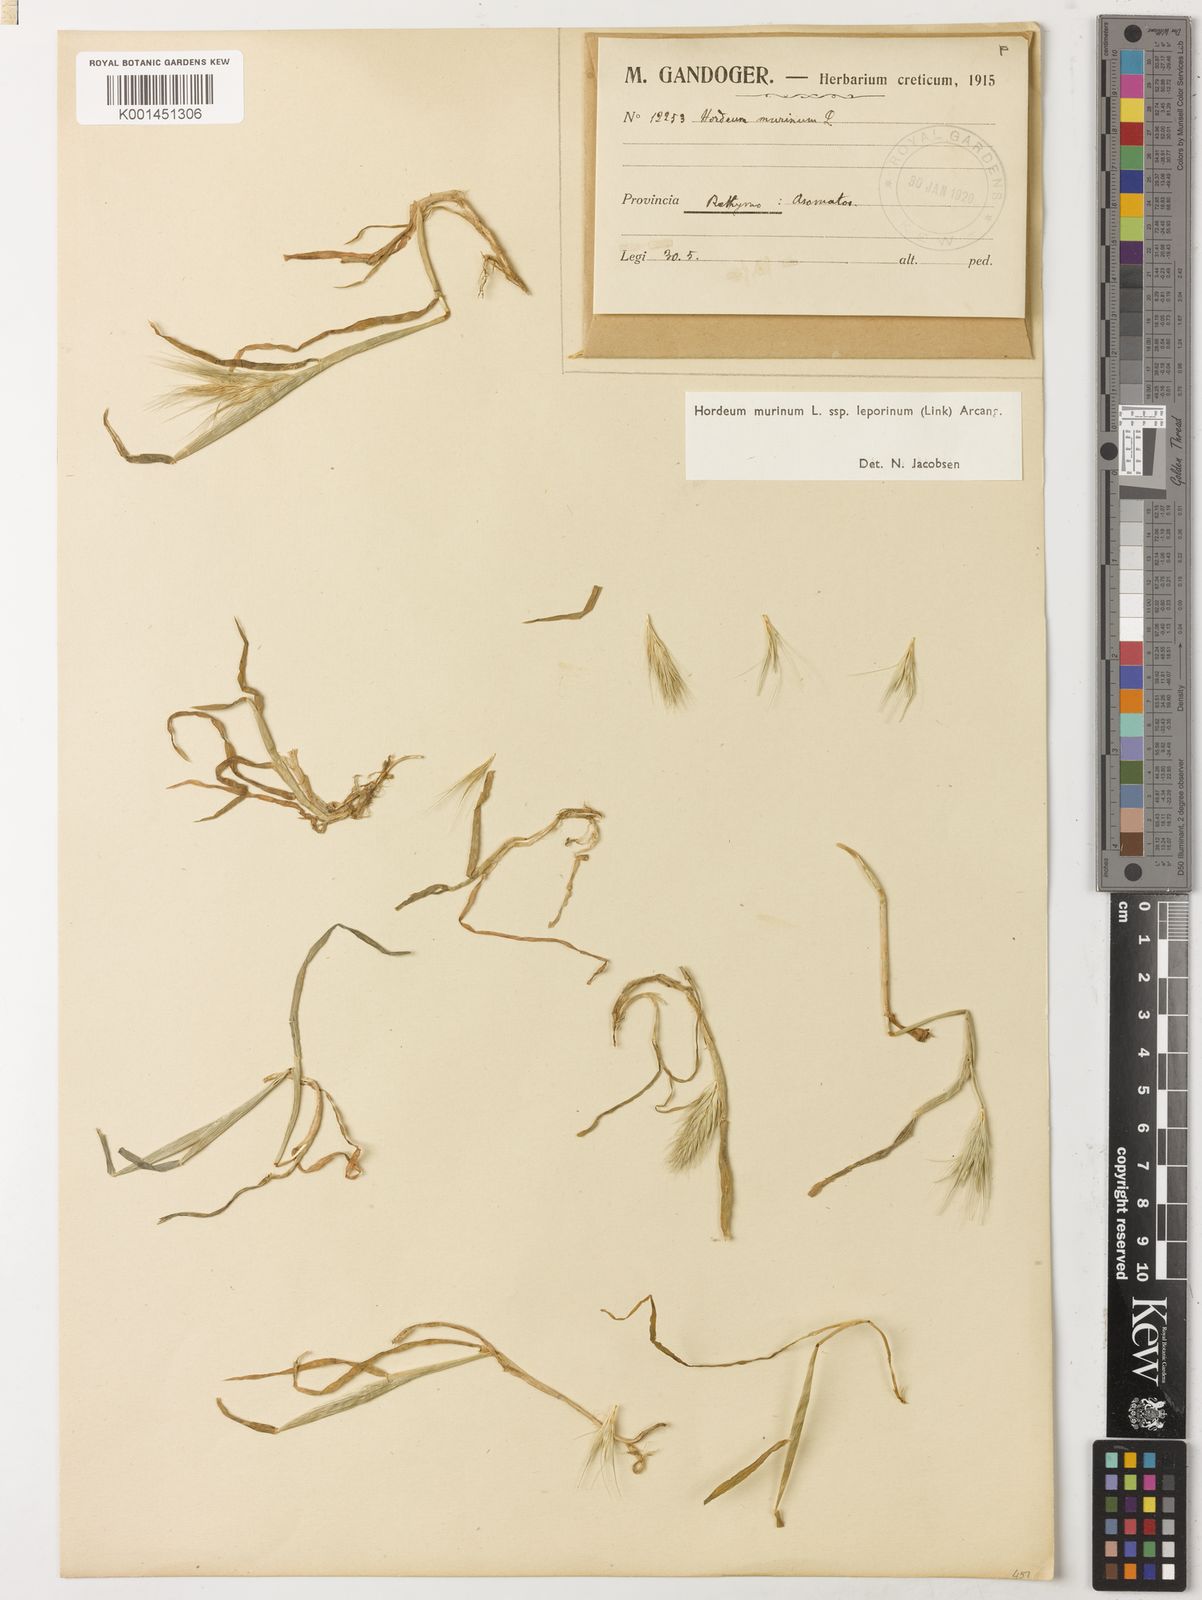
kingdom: Plantae
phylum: Tracheophyta
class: Liliopsida
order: Poales
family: Poaceae
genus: Hordeum
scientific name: Hordeum murinum
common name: Wall barley
